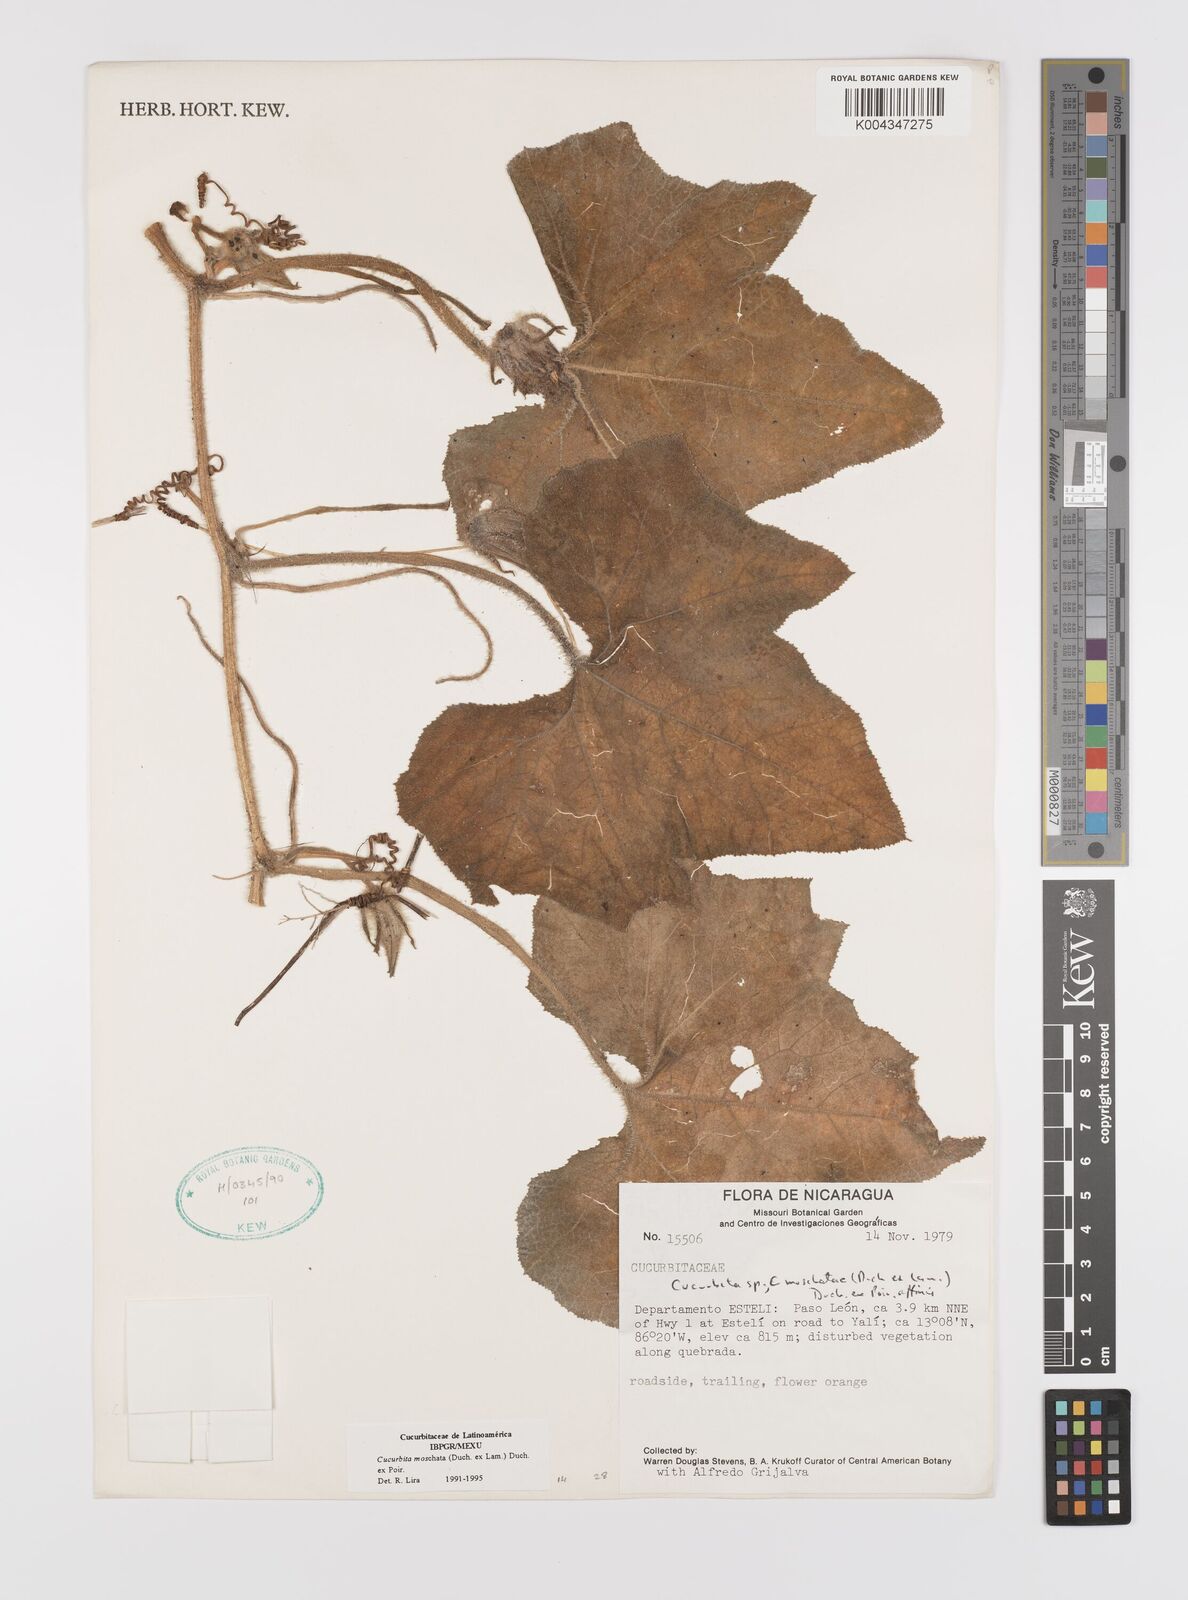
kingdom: Plantae
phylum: Tracheophyta
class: Magnoliopsida
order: Cucurbitales
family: Cucurbitaceae
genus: Cucurbita
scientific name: Cucurbita moschata
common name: Squash / pumpkin
